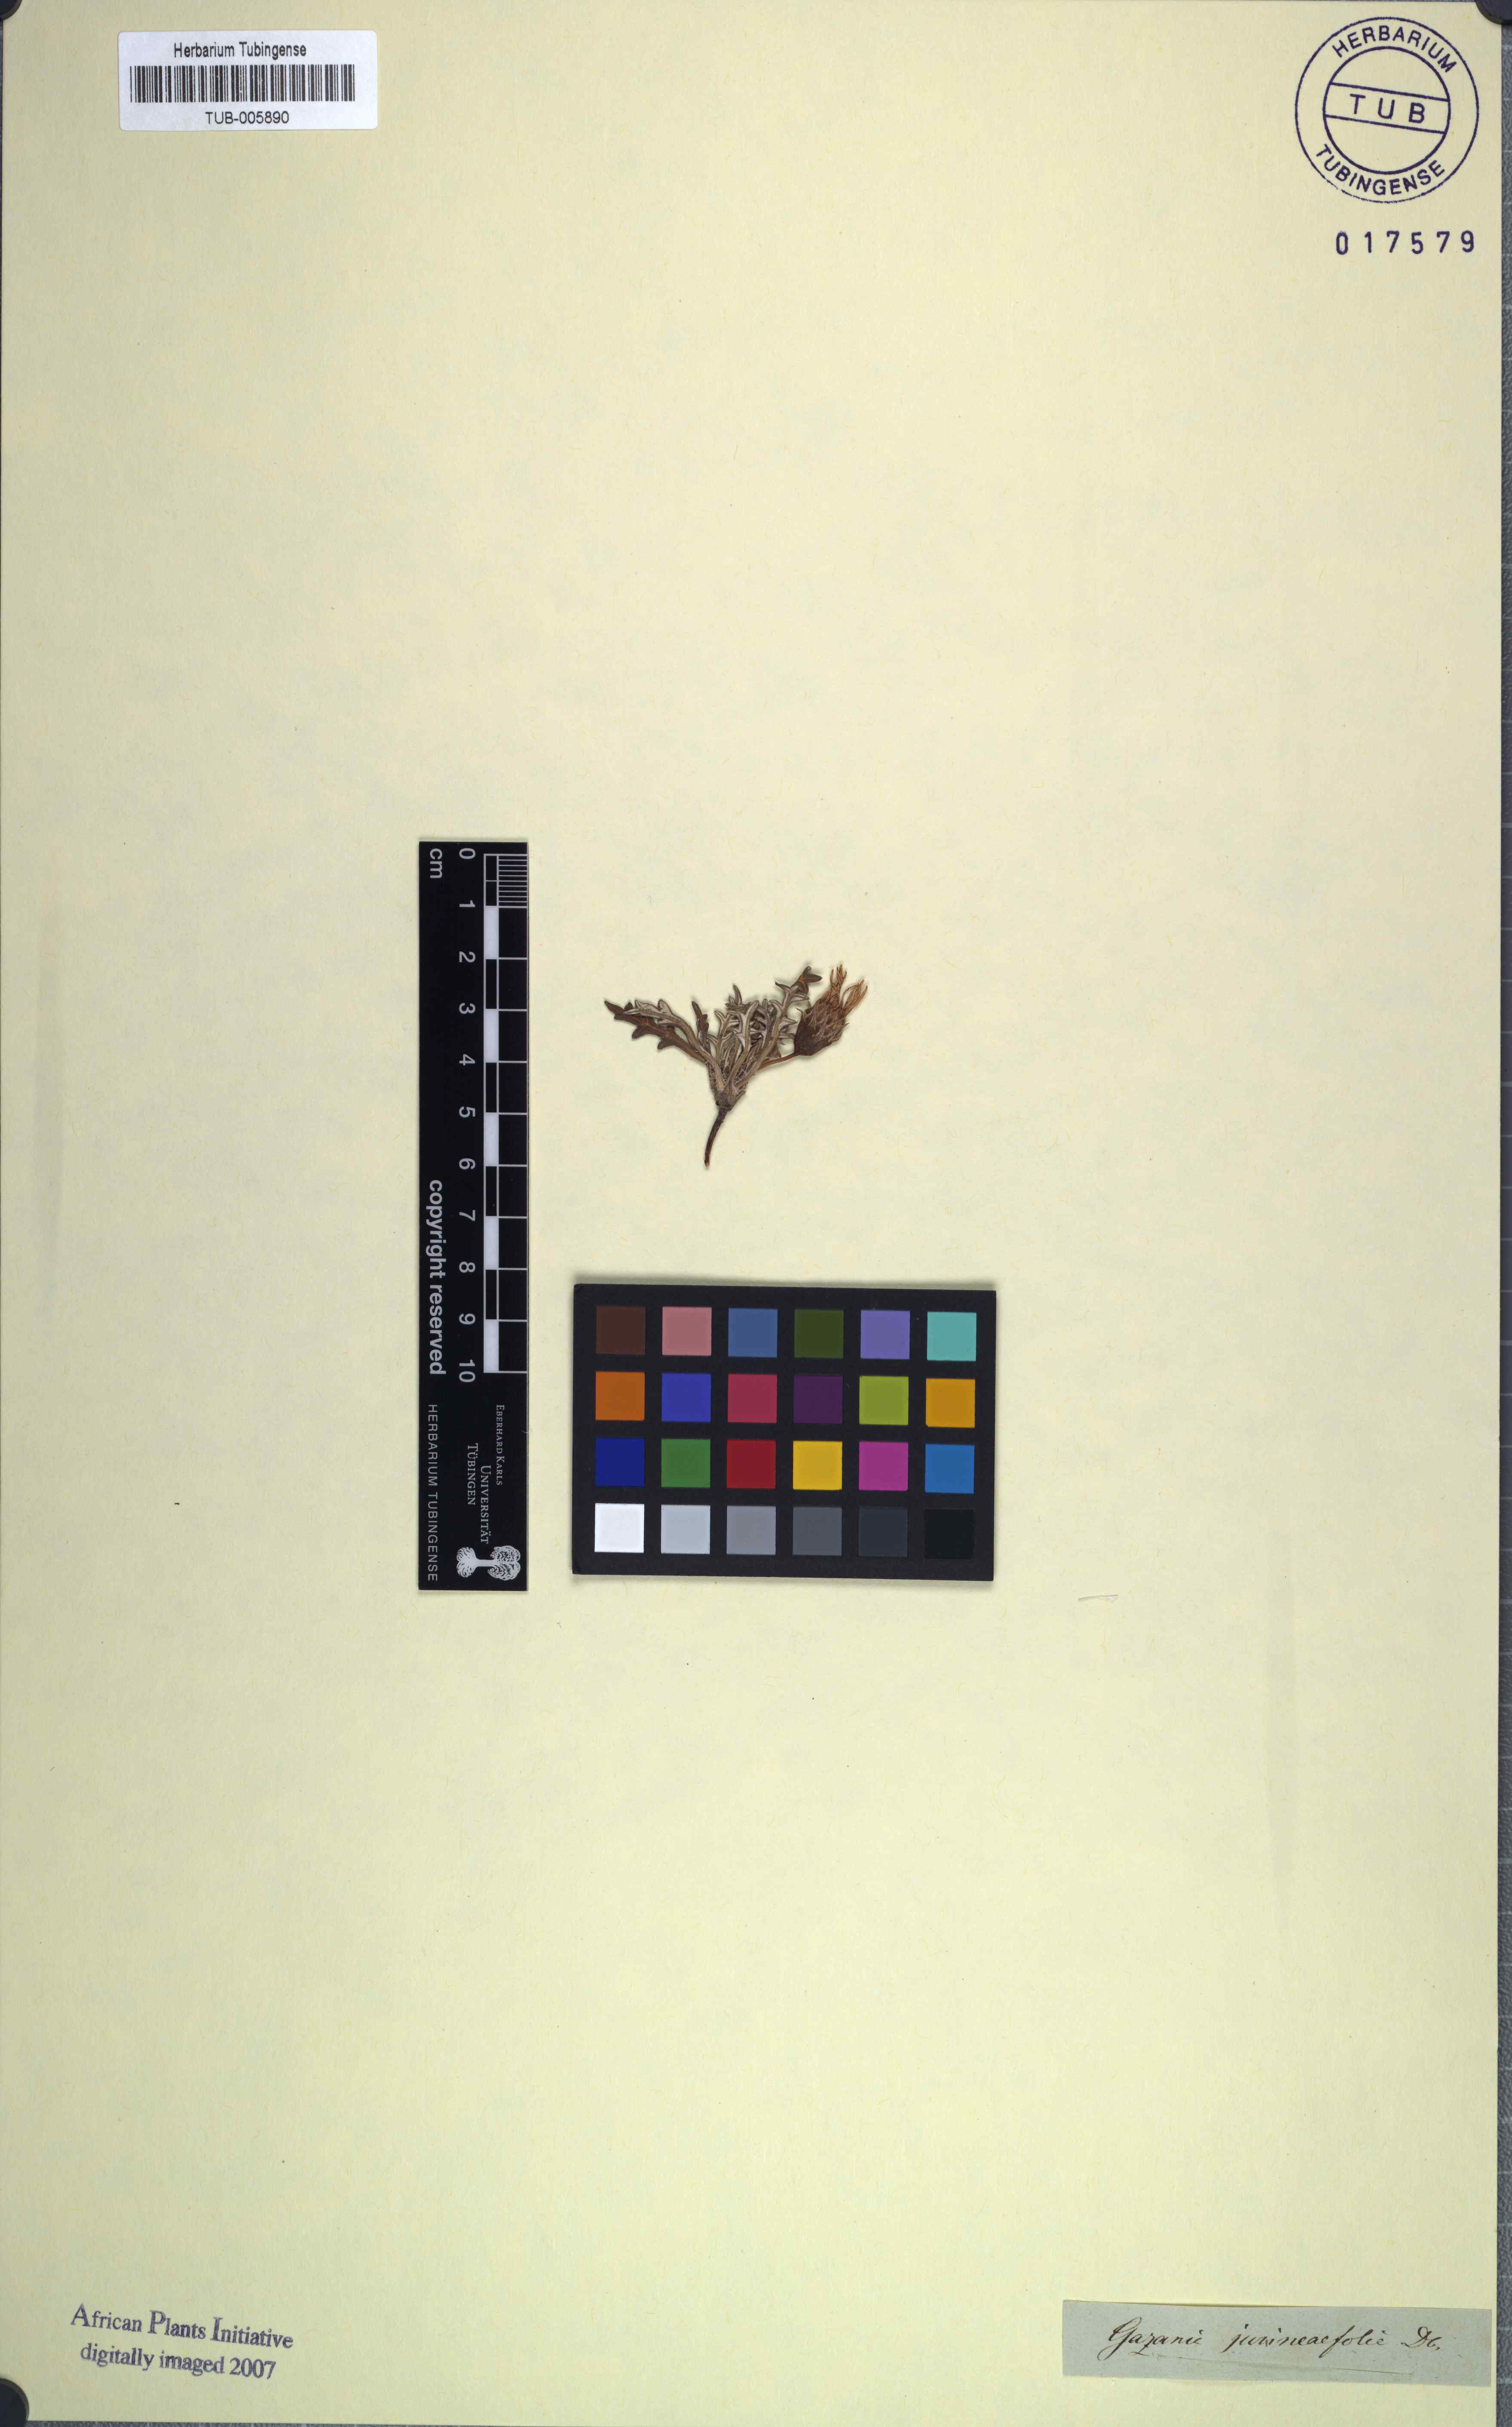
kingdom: Plantae
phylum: Tracheophyta
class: Magnoliopsida
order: Asterales
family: Asteraceae
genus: Gazania
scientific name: Gazania jurineifolia
